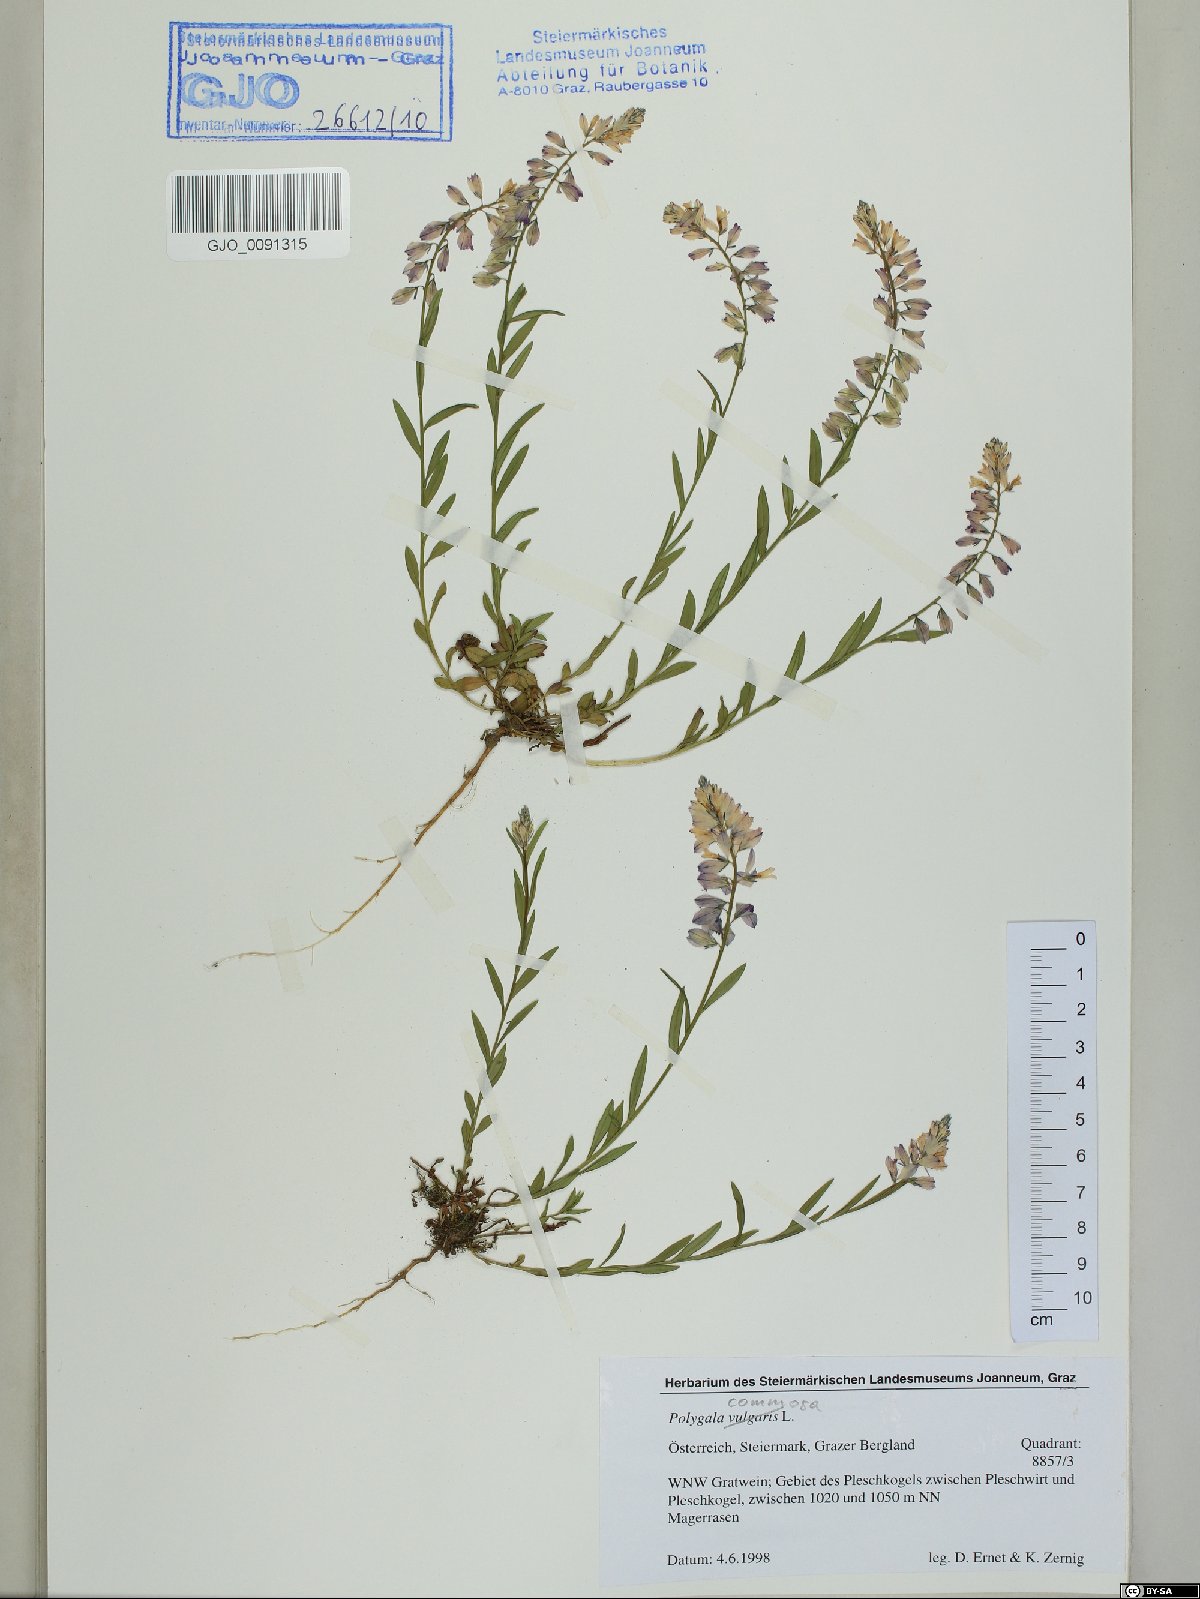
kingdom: Plantae
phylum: Tracheophyta
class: Magnoliopsida
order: Fabales
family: Polygalaceae
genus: Polygala
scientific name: Polygala comosa
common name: Tufted milkwort
